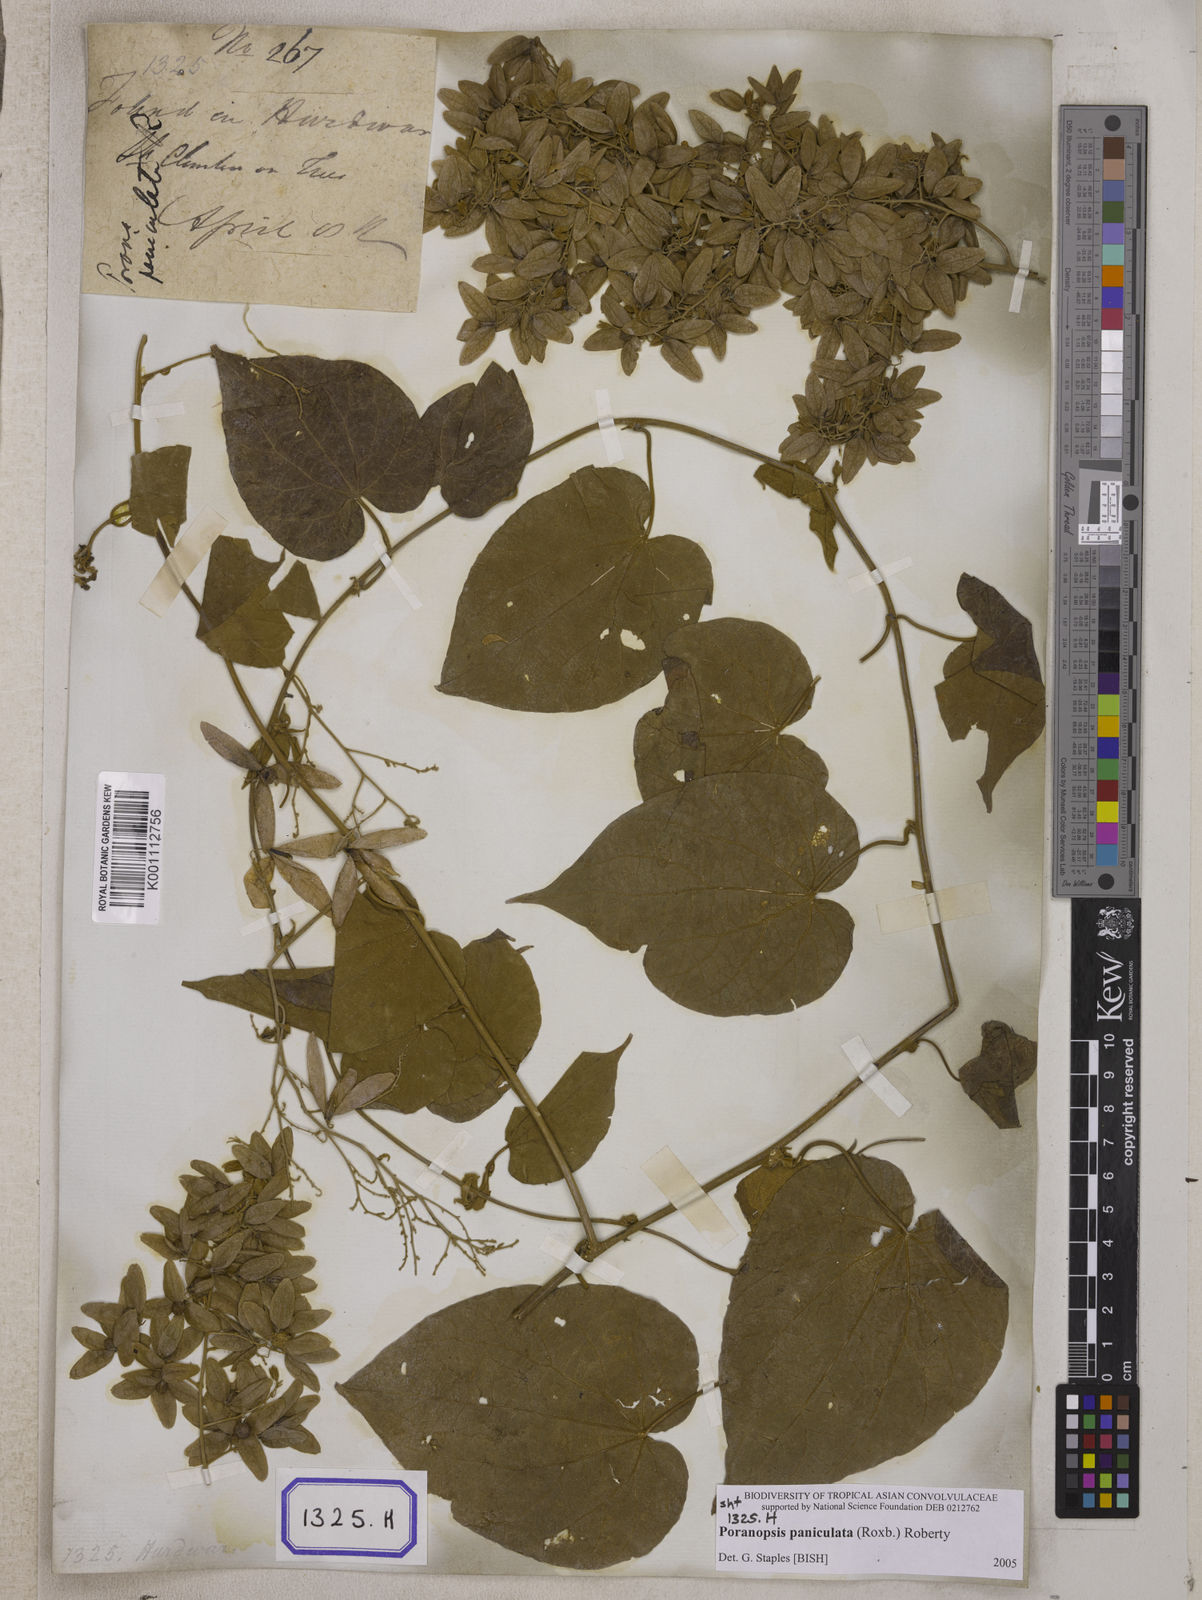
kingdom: Plantae
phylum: Tracheophyta
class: Magnoliopsida
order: Solanales
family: Convolvulaceae
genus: Poranopsis
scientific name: Poranopsis paniculata
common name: Bridal bouquet
